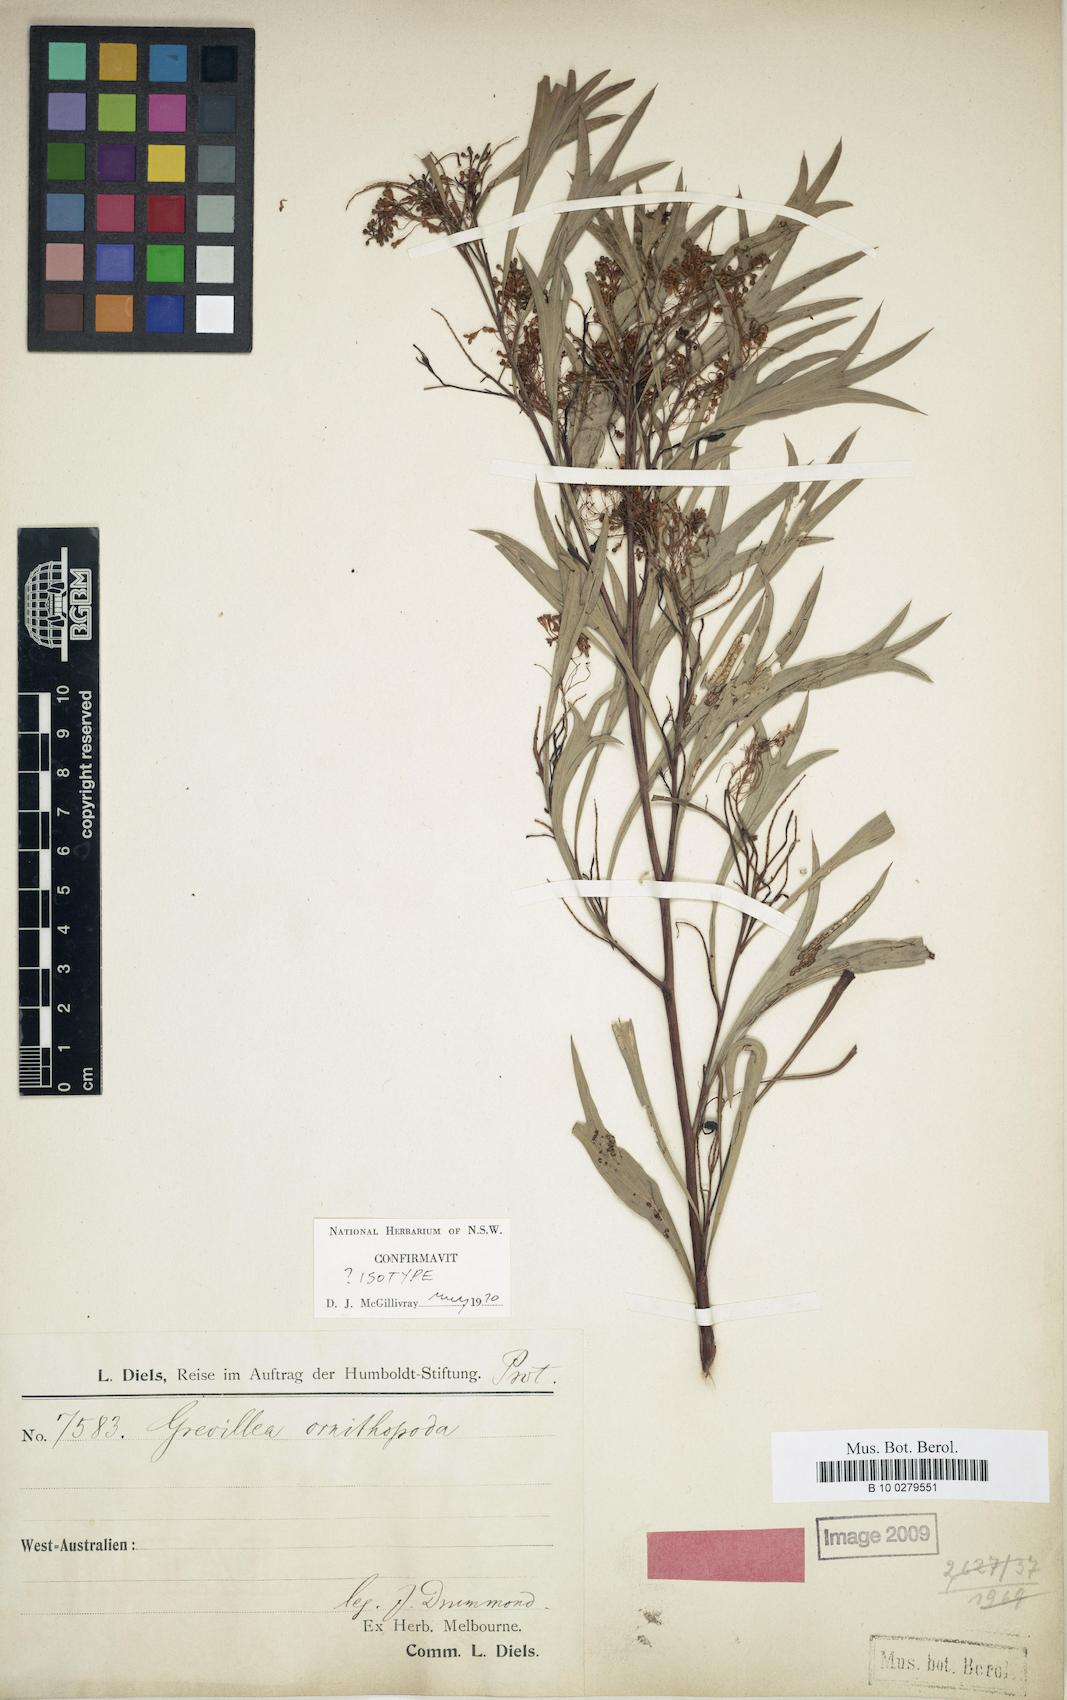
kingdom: Plantae
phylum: Tracheophyta
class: Magnoliopsida
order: Proteales
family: Proteaceae
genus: Grevillea
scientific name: Grevillea manglesii
